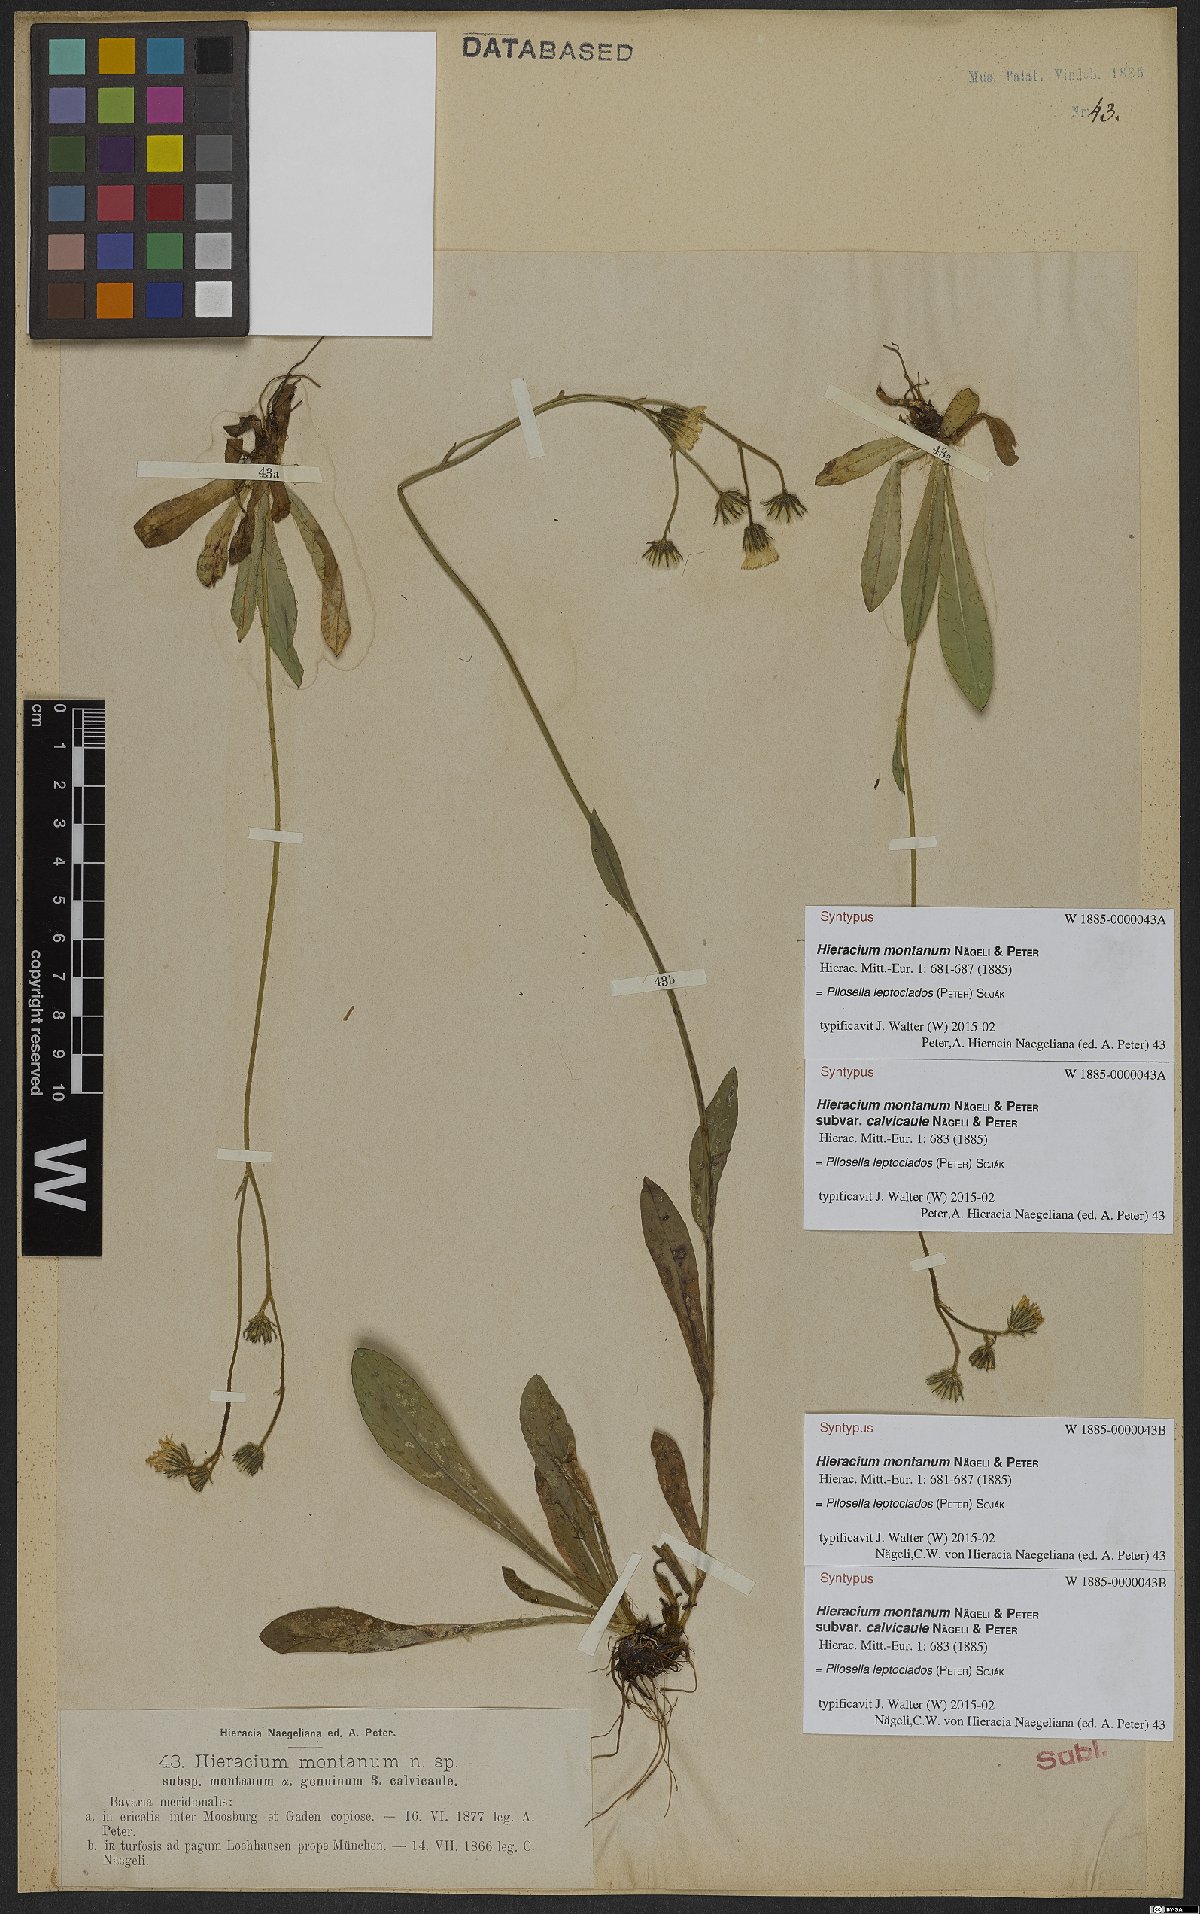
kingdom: Plantae
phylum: Tracheophyta
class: Magnoliopsida
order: Asterales
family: Asteraceae
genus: Pilosella
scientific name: Pilosella leptoclados
